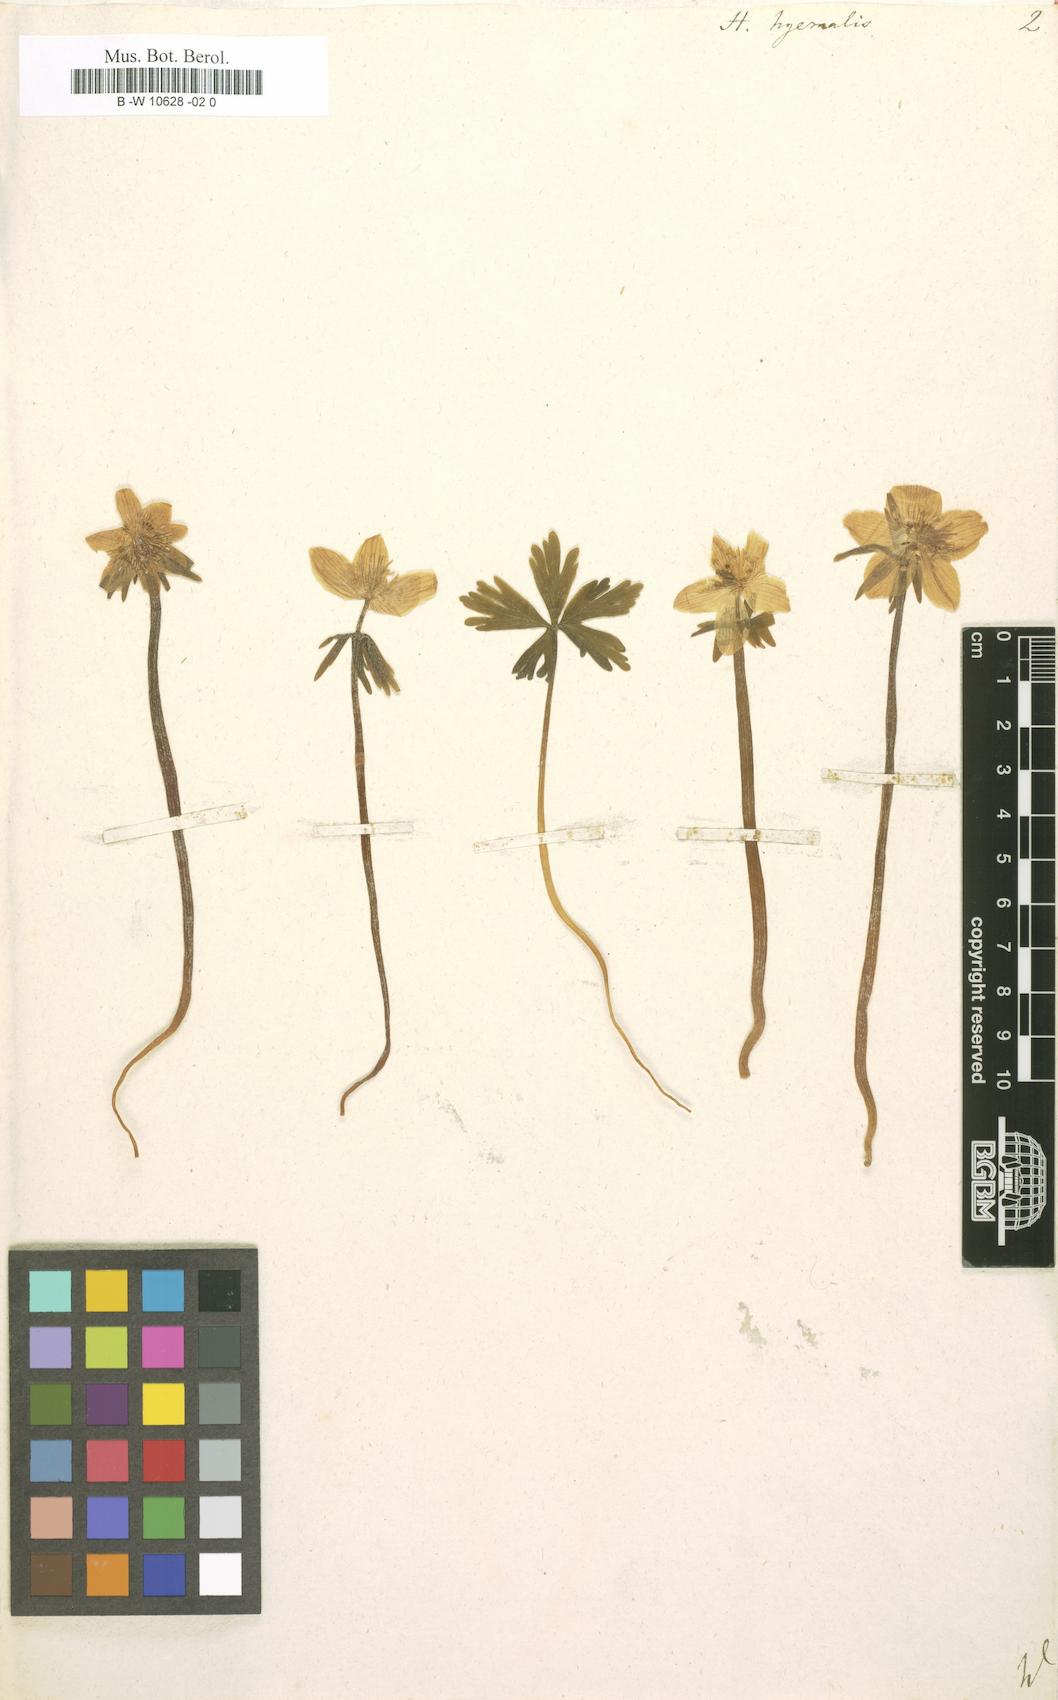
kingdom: Plantae
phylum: Tracheophyta
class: Magnoliopsida
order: Ranunculales
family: Ranunculaceae
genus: Eranthis
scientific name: Eranthis hyemalis
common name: Winter aconite
